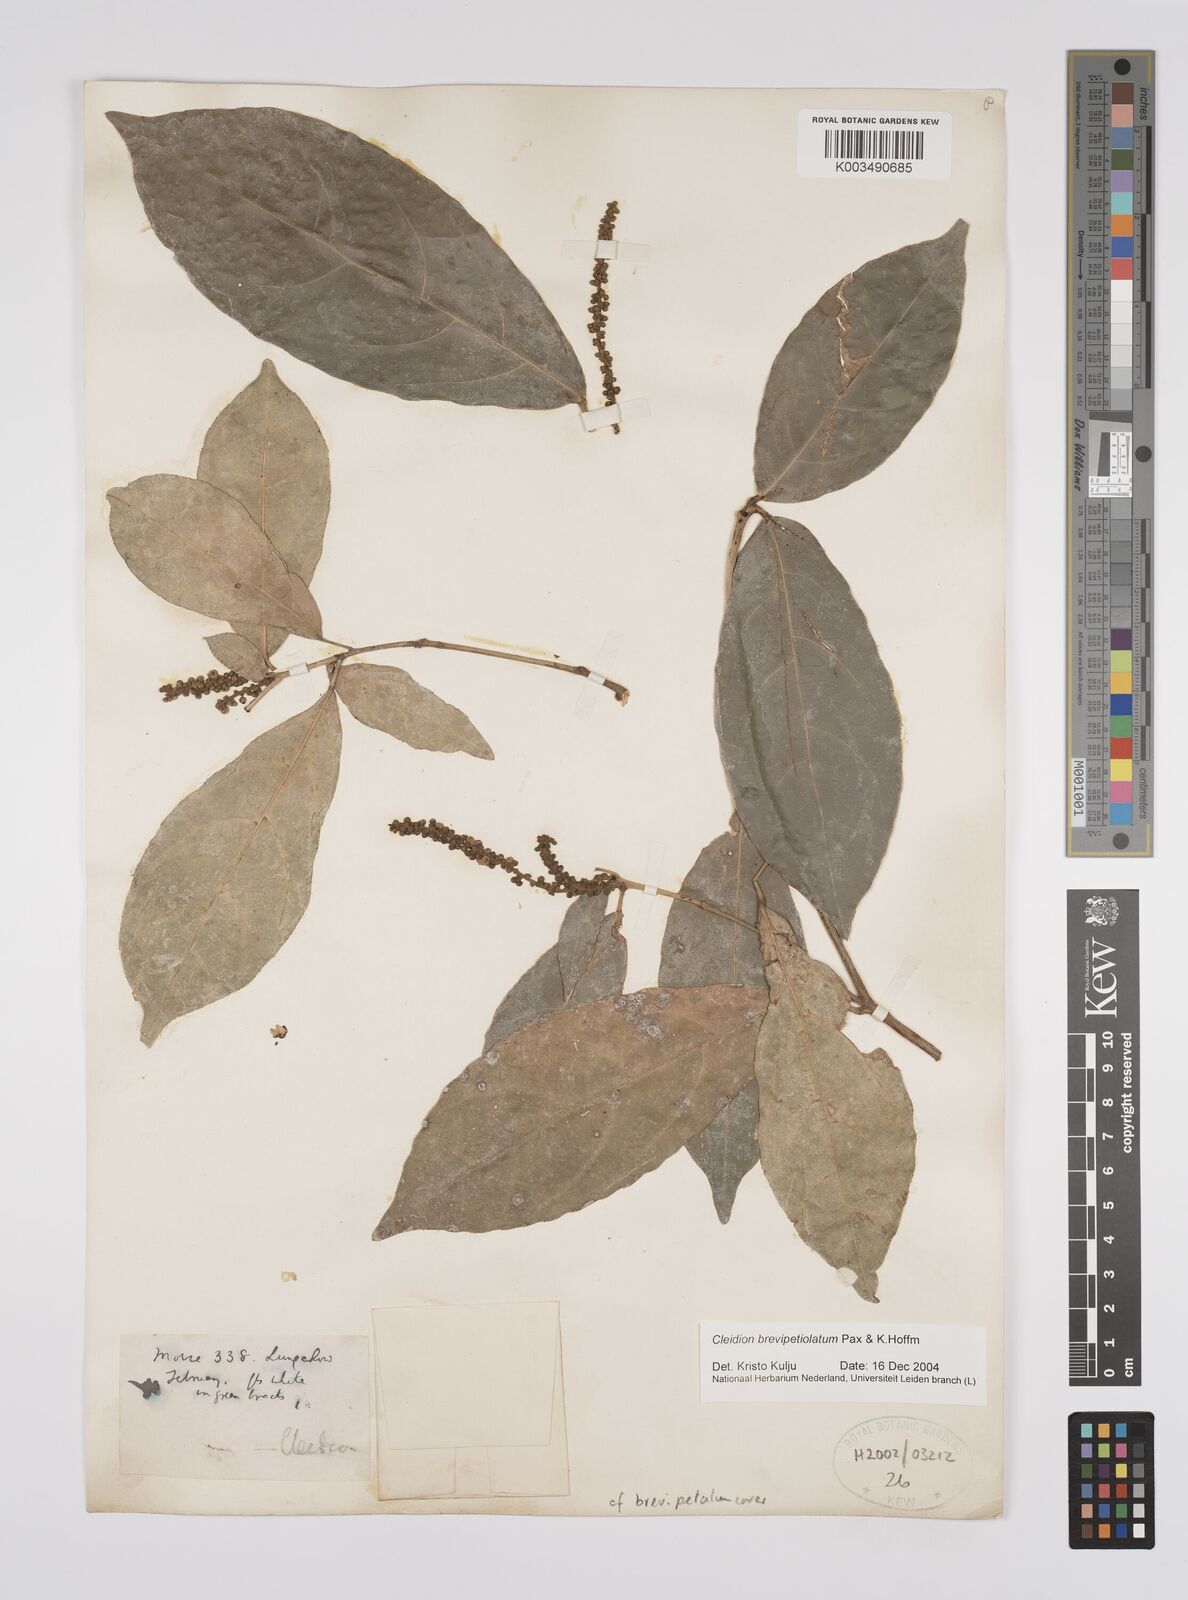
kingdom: Plantae
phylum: Tracheophyta
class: Magnoliopsida
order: Malpighiales
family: Euphorbiaceae
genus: Cleidion
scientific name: Cleidion brevipetiolatum
